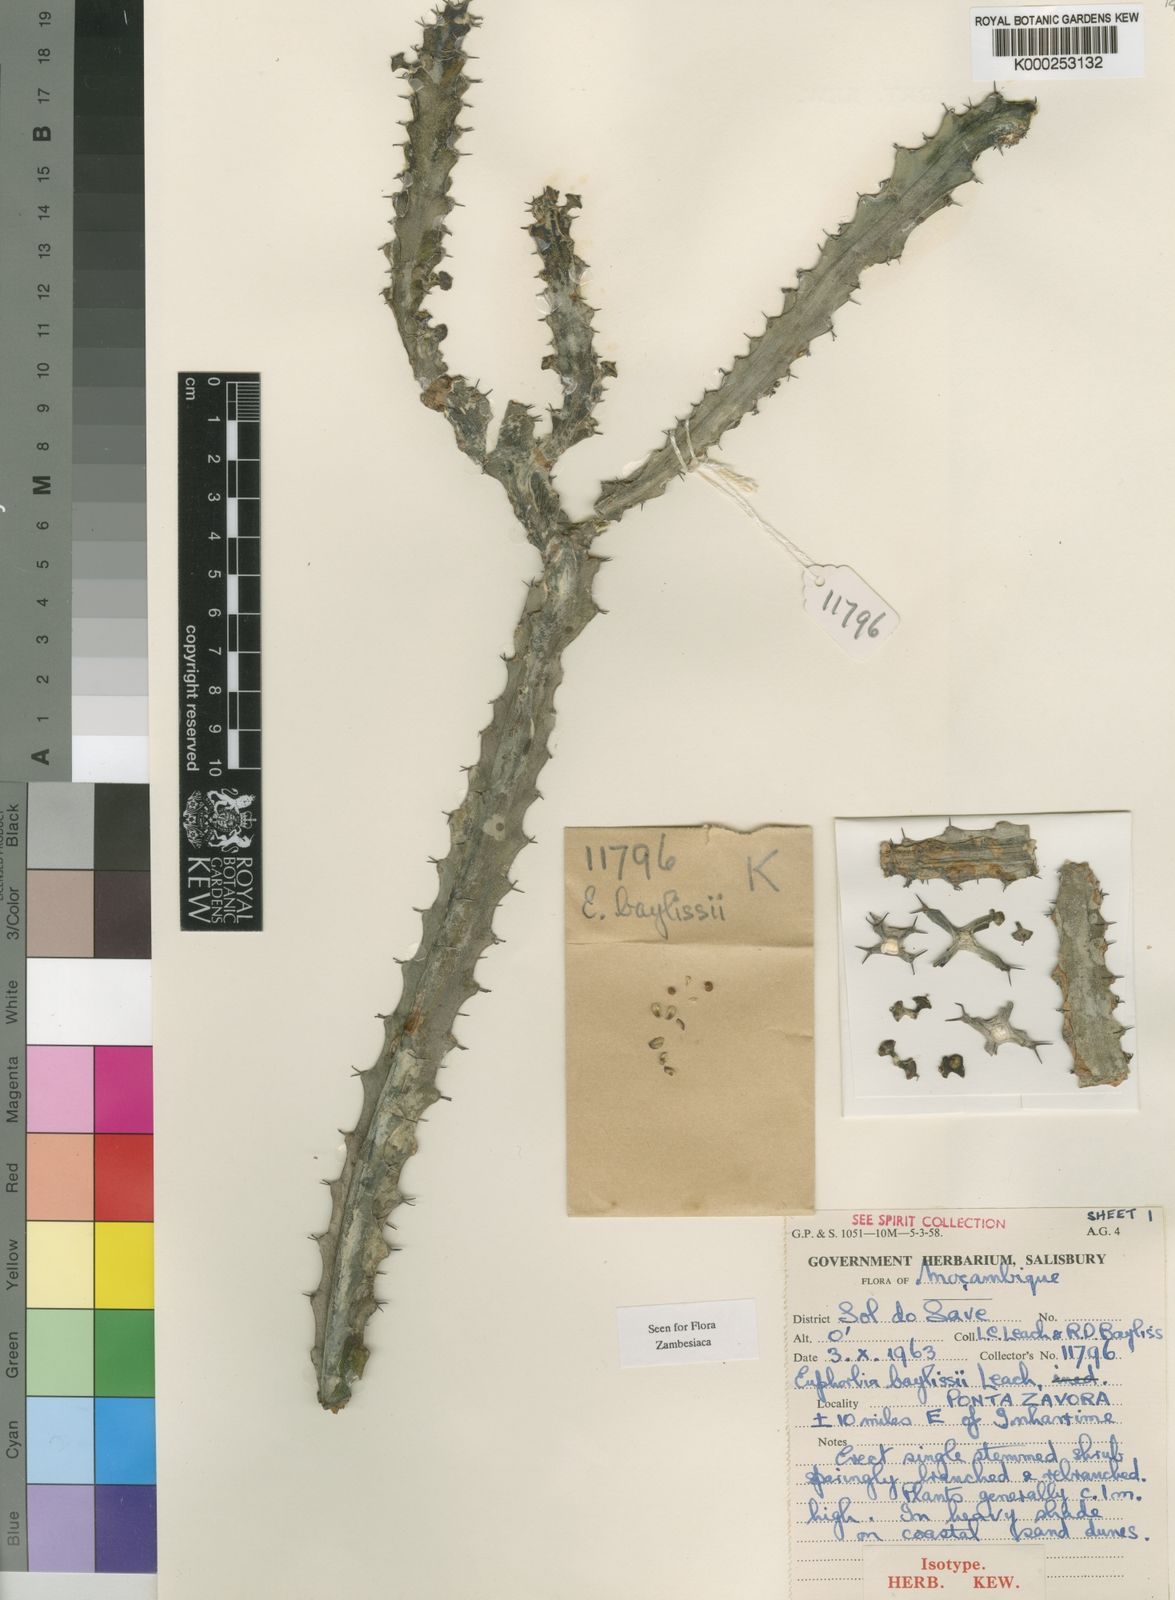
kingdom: Plantae
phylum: Tracheophyta
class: Magnoliopsida
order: Malpighiales
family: Euphorbiaceae
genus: Euphorbia
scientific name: Euphorbia baylissii
